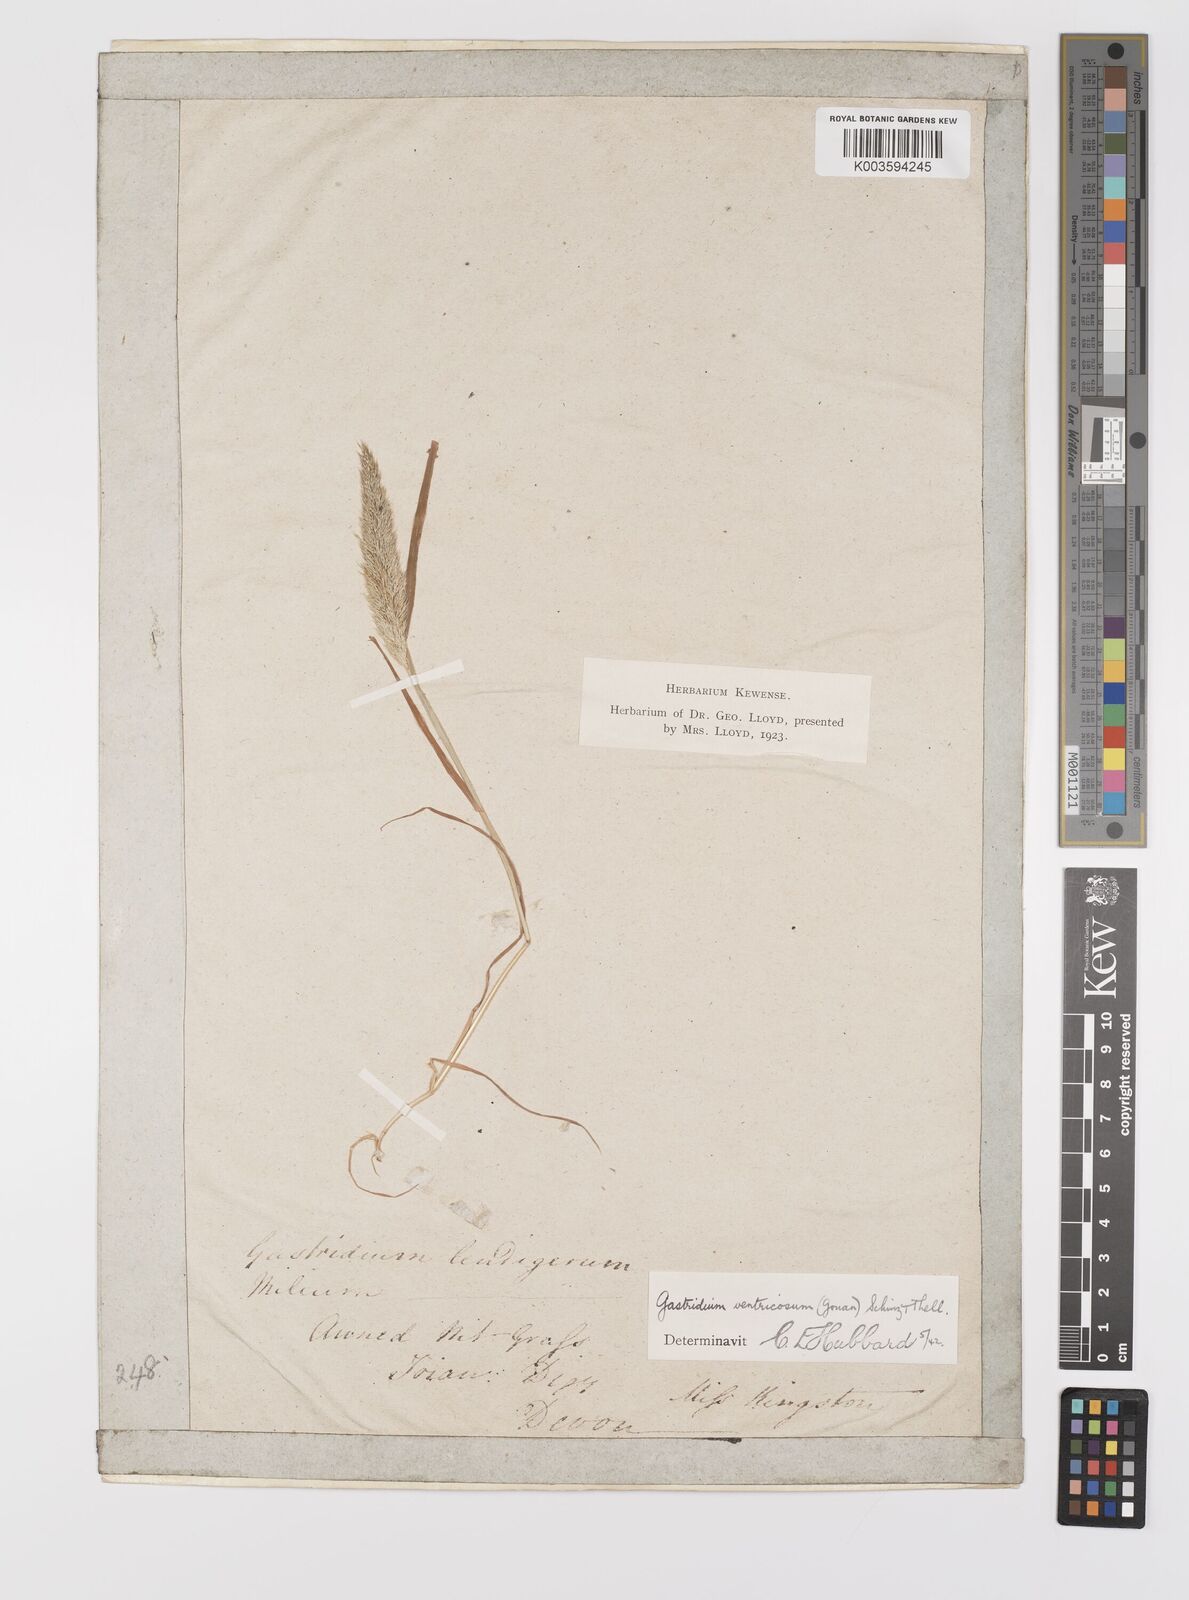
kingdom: Plantae
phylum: Tracheophyta
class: Liliopsida
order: Poales
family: Poaceae
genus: Gastridium
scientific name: Gastridium ventricosum
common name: Nit-grass
